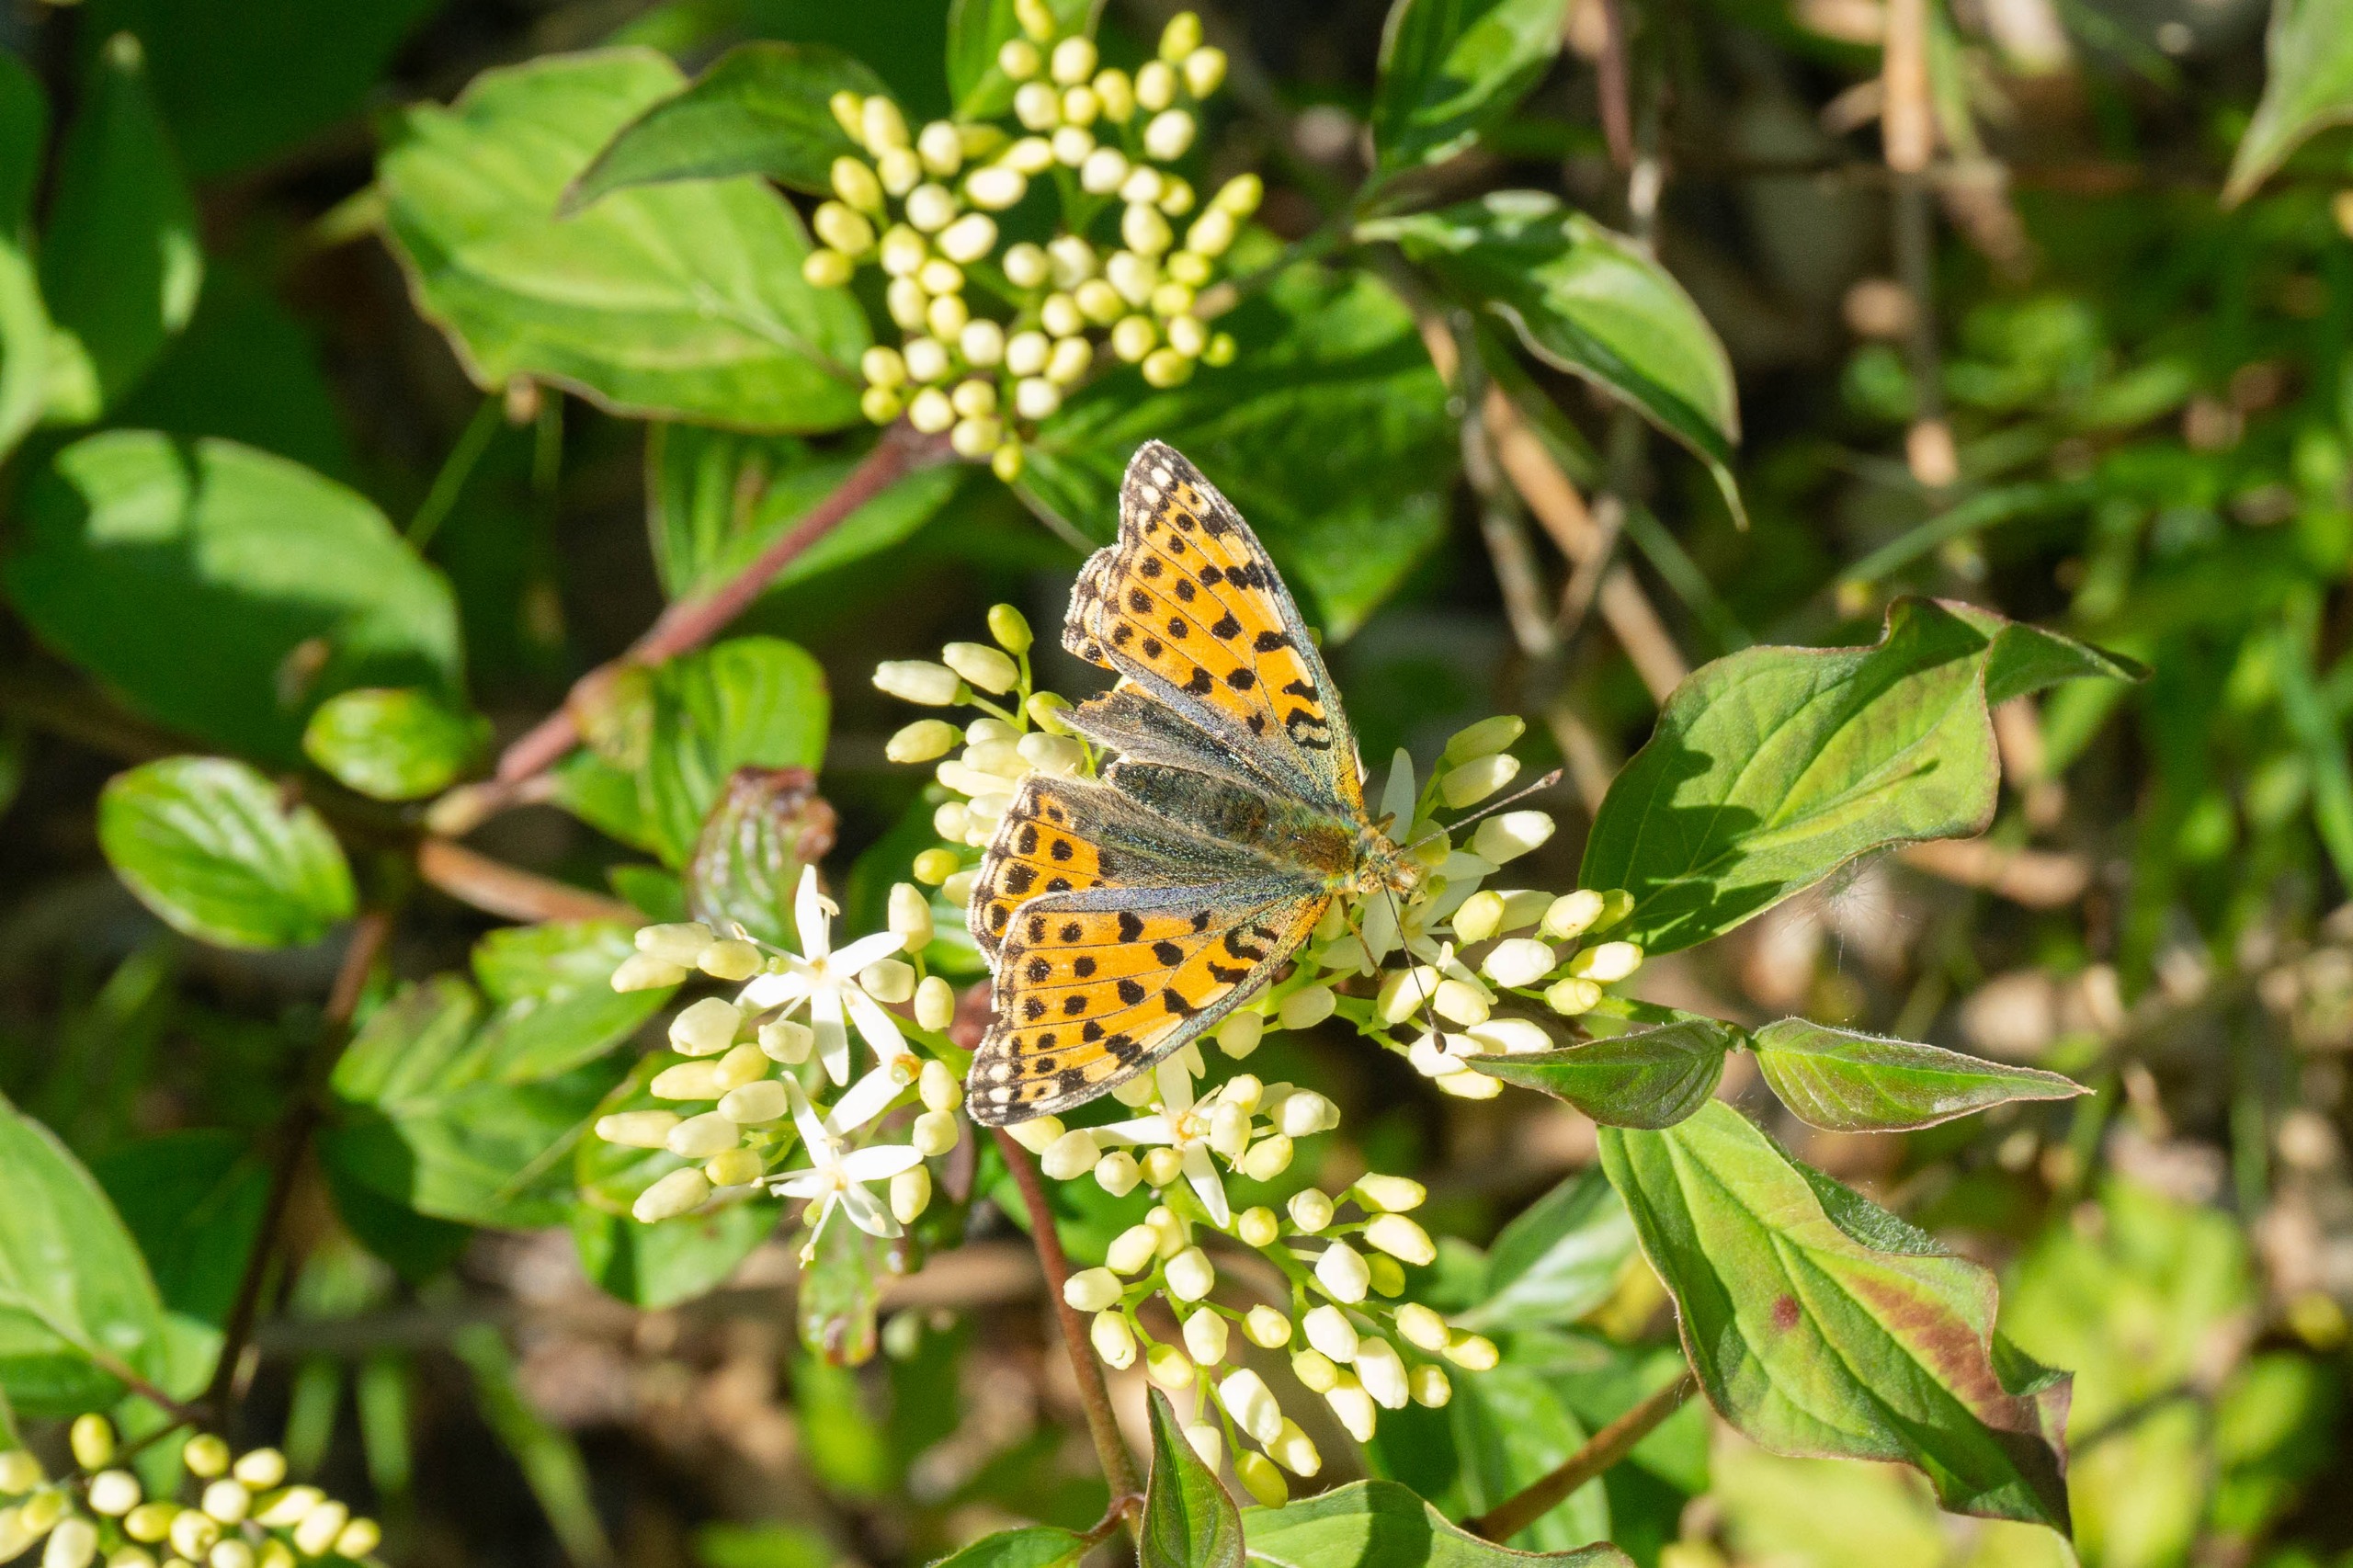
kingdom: Animalia
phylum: Arthropoda
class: Insecta
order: Lepidoptera
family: Nymphalidae
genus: Issoria
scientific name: Issoria lathonia
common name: Storplettet perlemorsommerfugl
